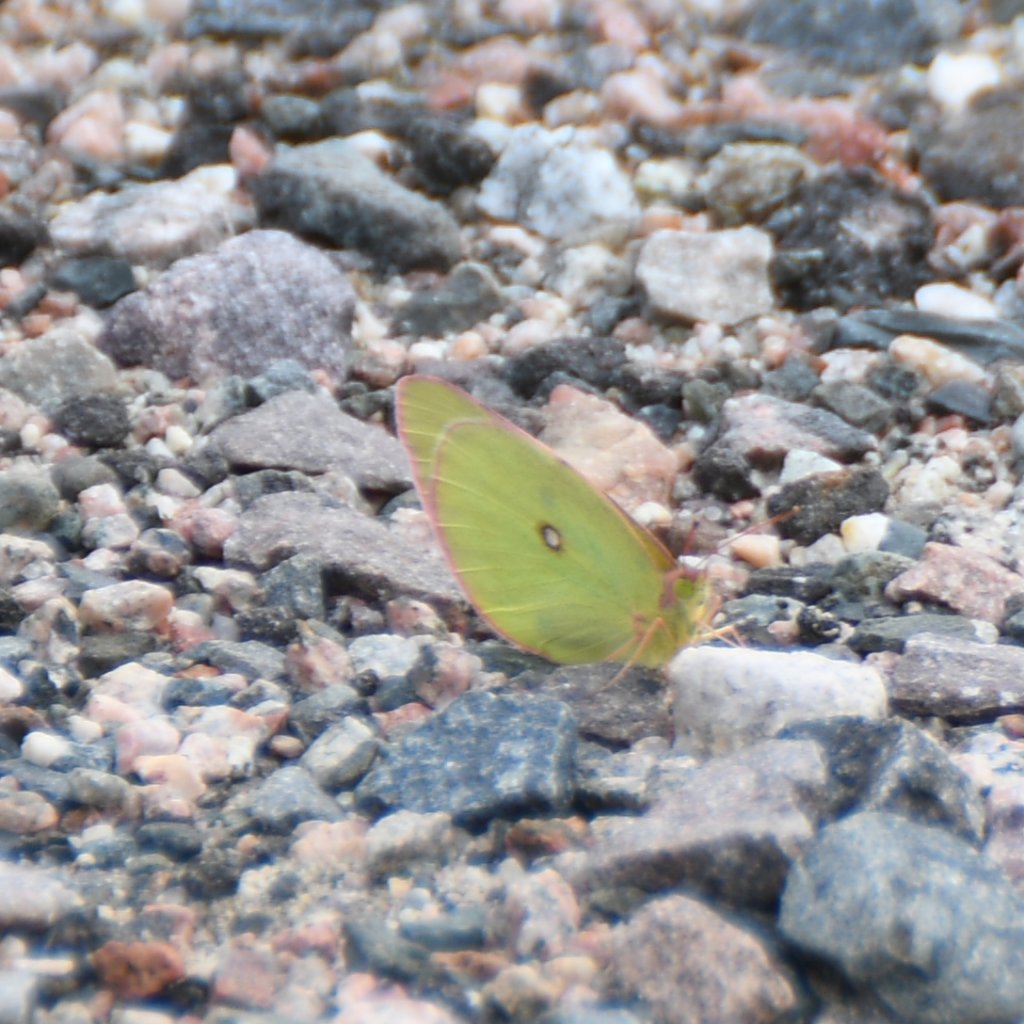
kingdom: Animalia
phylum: Arthropoda
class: Insecta
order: Lepidoptera
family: Pieridae
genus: Colias
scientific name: Colias interior
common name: Pink-edged Sulphur
